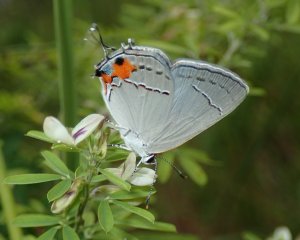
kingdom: Animalia
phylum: Arthropoda
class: Insecta
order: Lepidoptera
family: Lycaenidae
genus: Strymon
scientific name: Strymon melinus
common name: Gray Hairstreak
